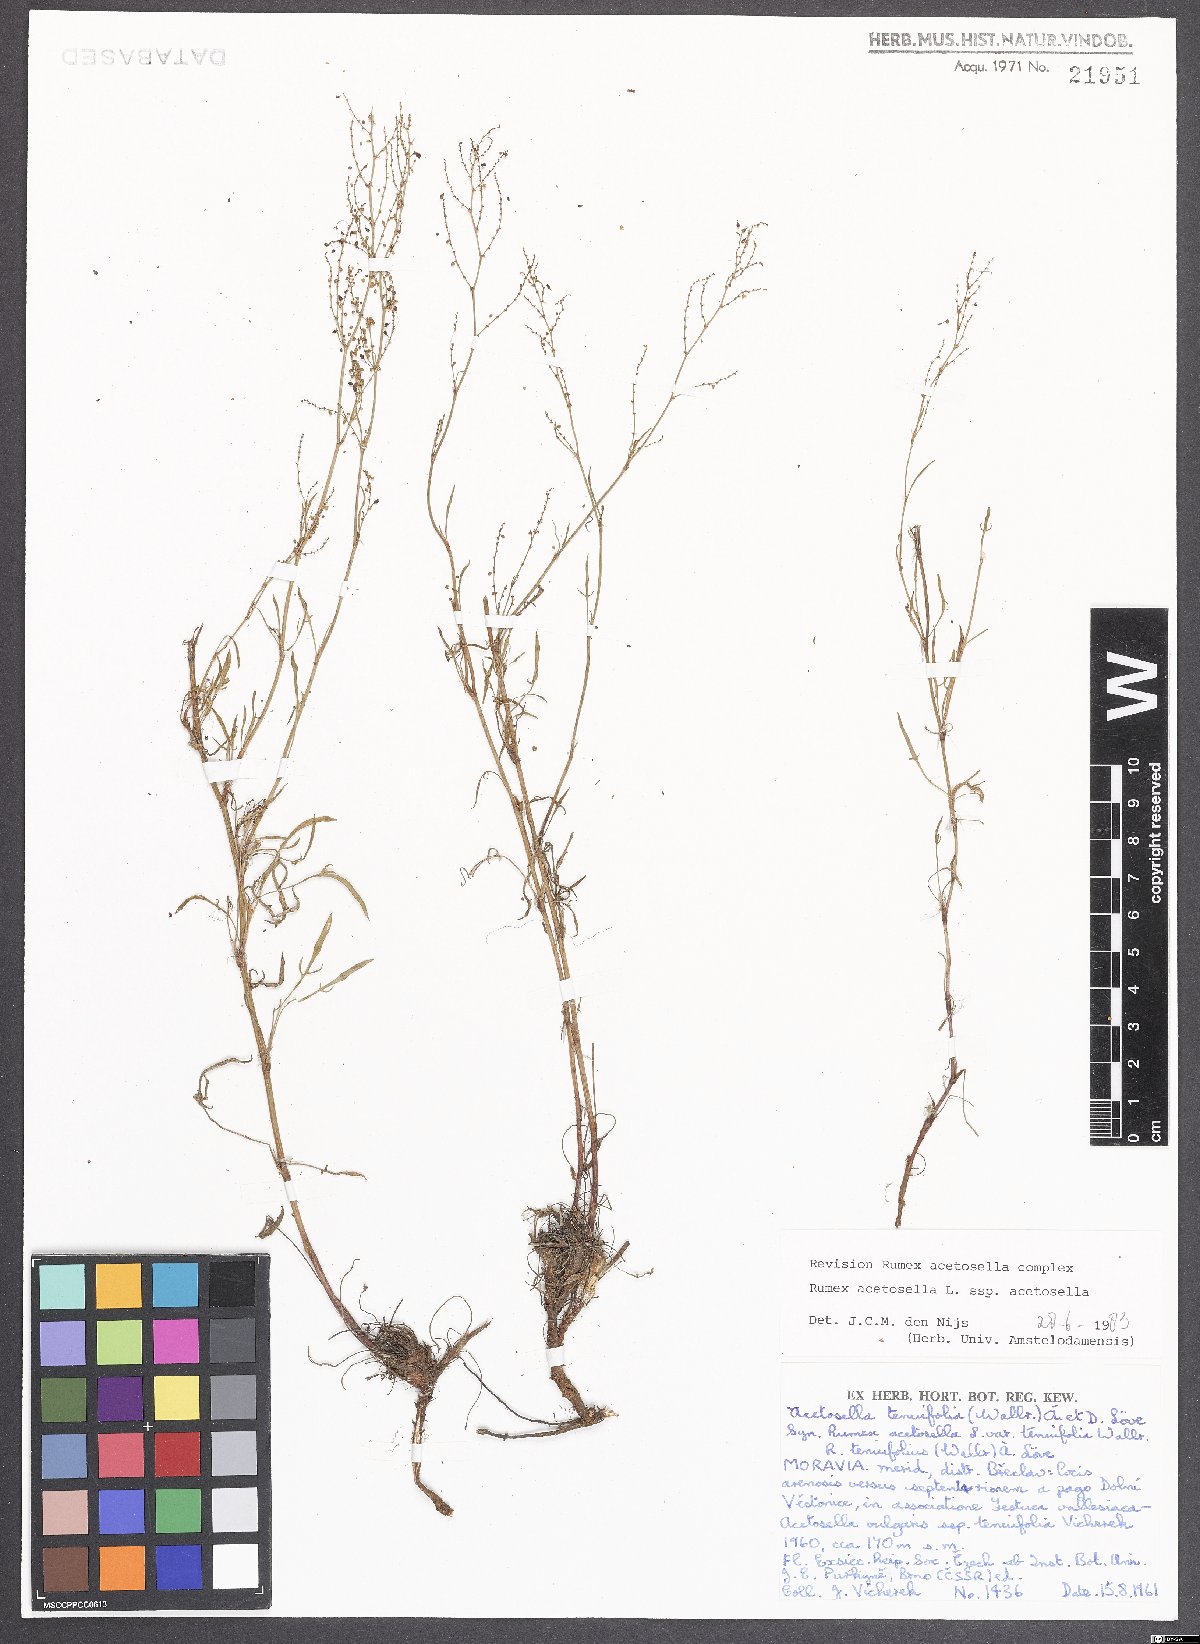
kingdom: Plantae
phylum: Tracheophyta
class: Magnoliopsida
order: Caryophyllales
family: Polygonaceae
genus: Rumex
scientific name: Rumex acetosella
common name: Common sheep sorrel
